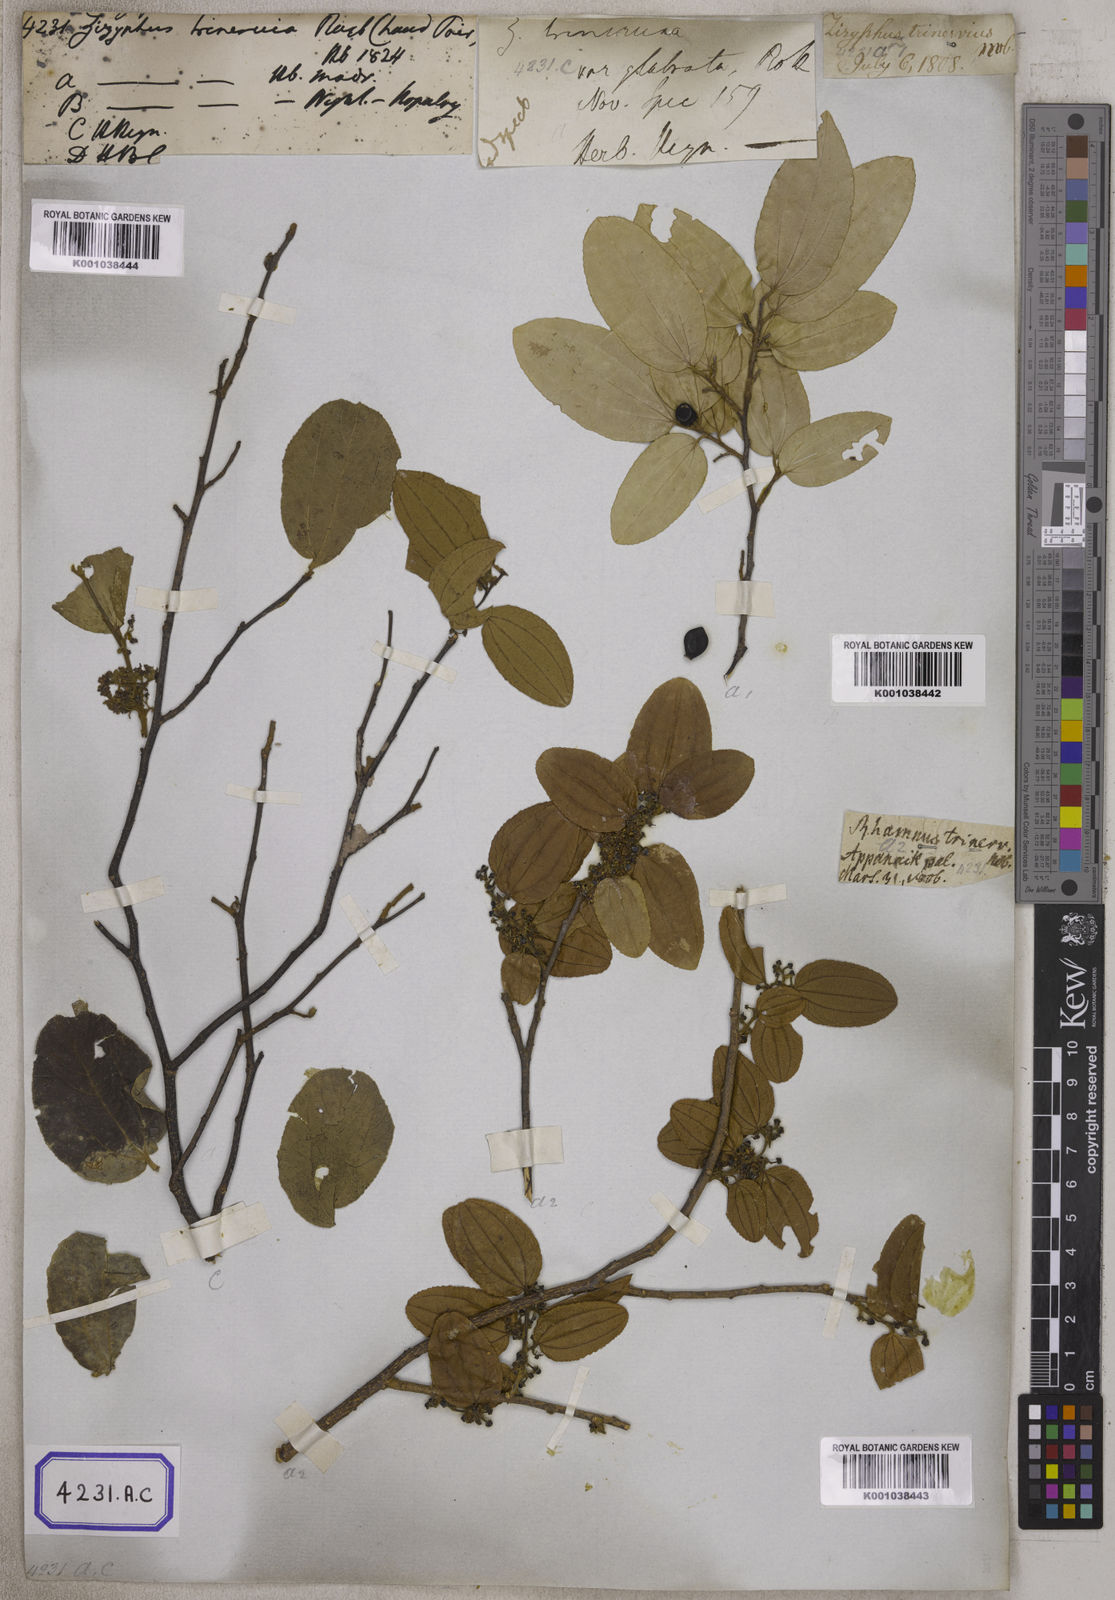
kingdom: Plantae
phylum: Tracheophyta
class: Magnoliopsida
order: Rosales
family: Rhamnaceae
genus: Ziziphus
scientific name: Ziziphus glabrata
